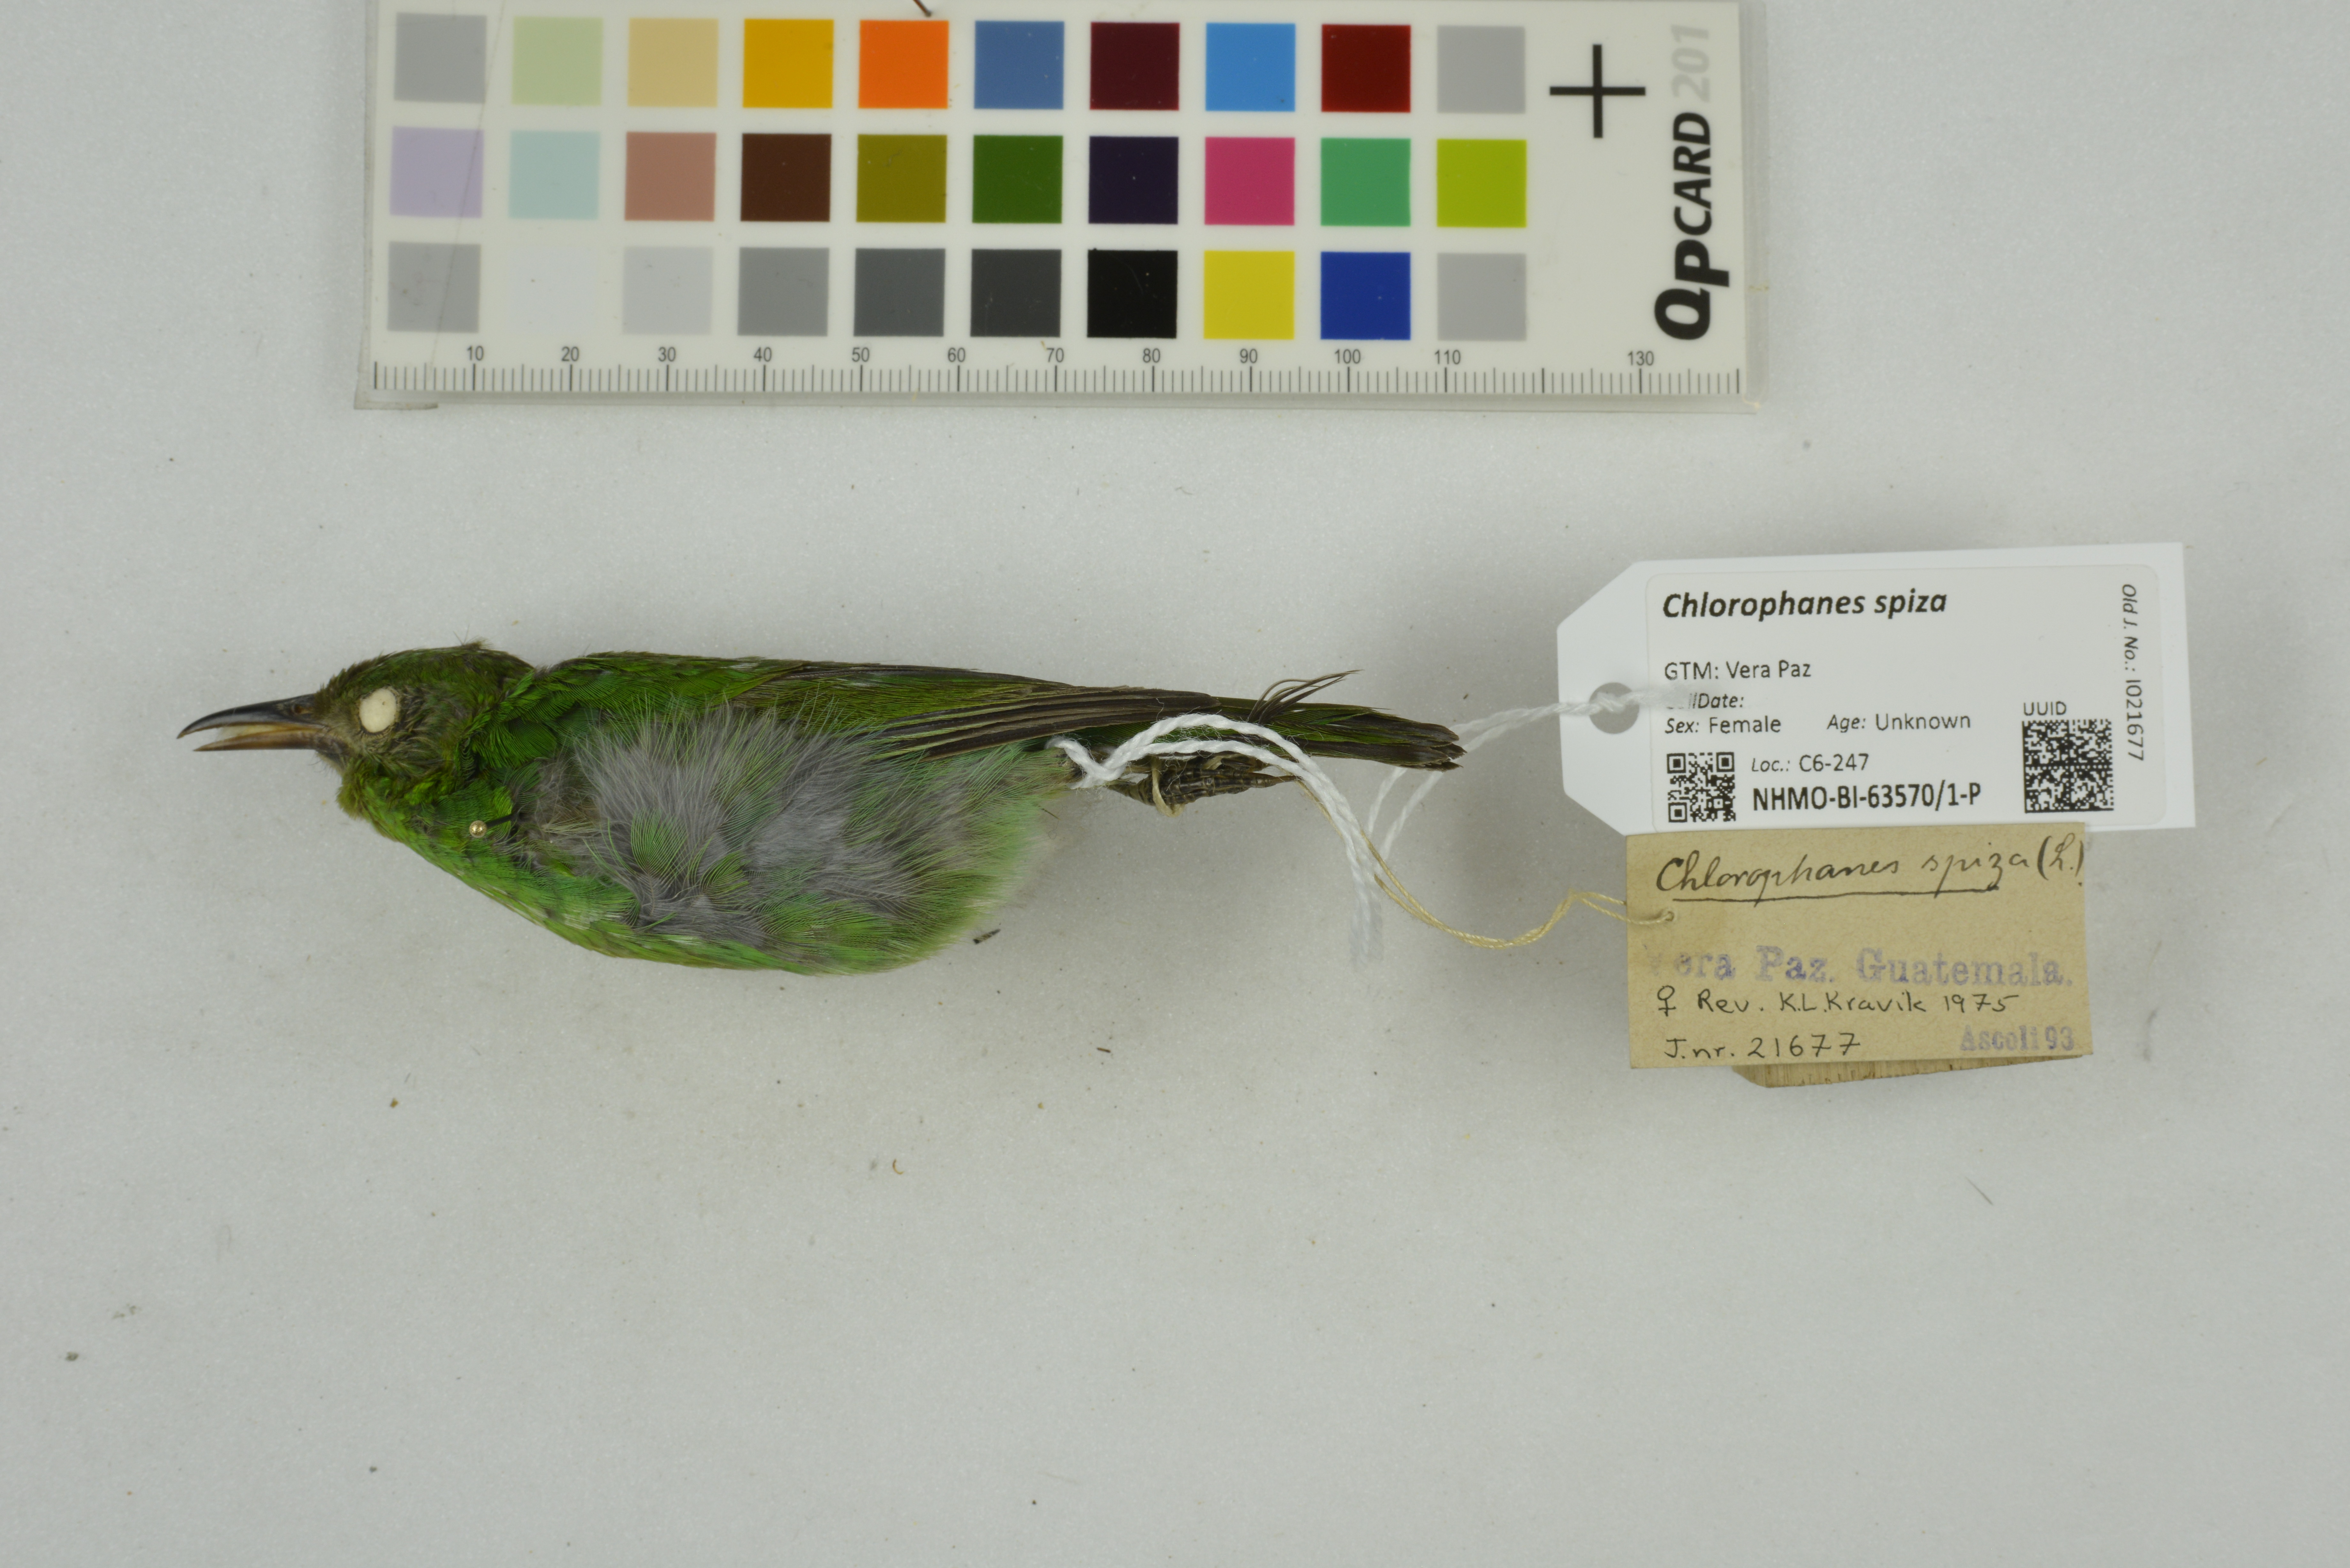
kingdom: Animalia
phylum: Chordata
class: Aves
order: Passeriformes
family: Thraupidae
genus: Chlorophanes
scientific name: Chlorophanes spiza
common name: Green honeycreeper
